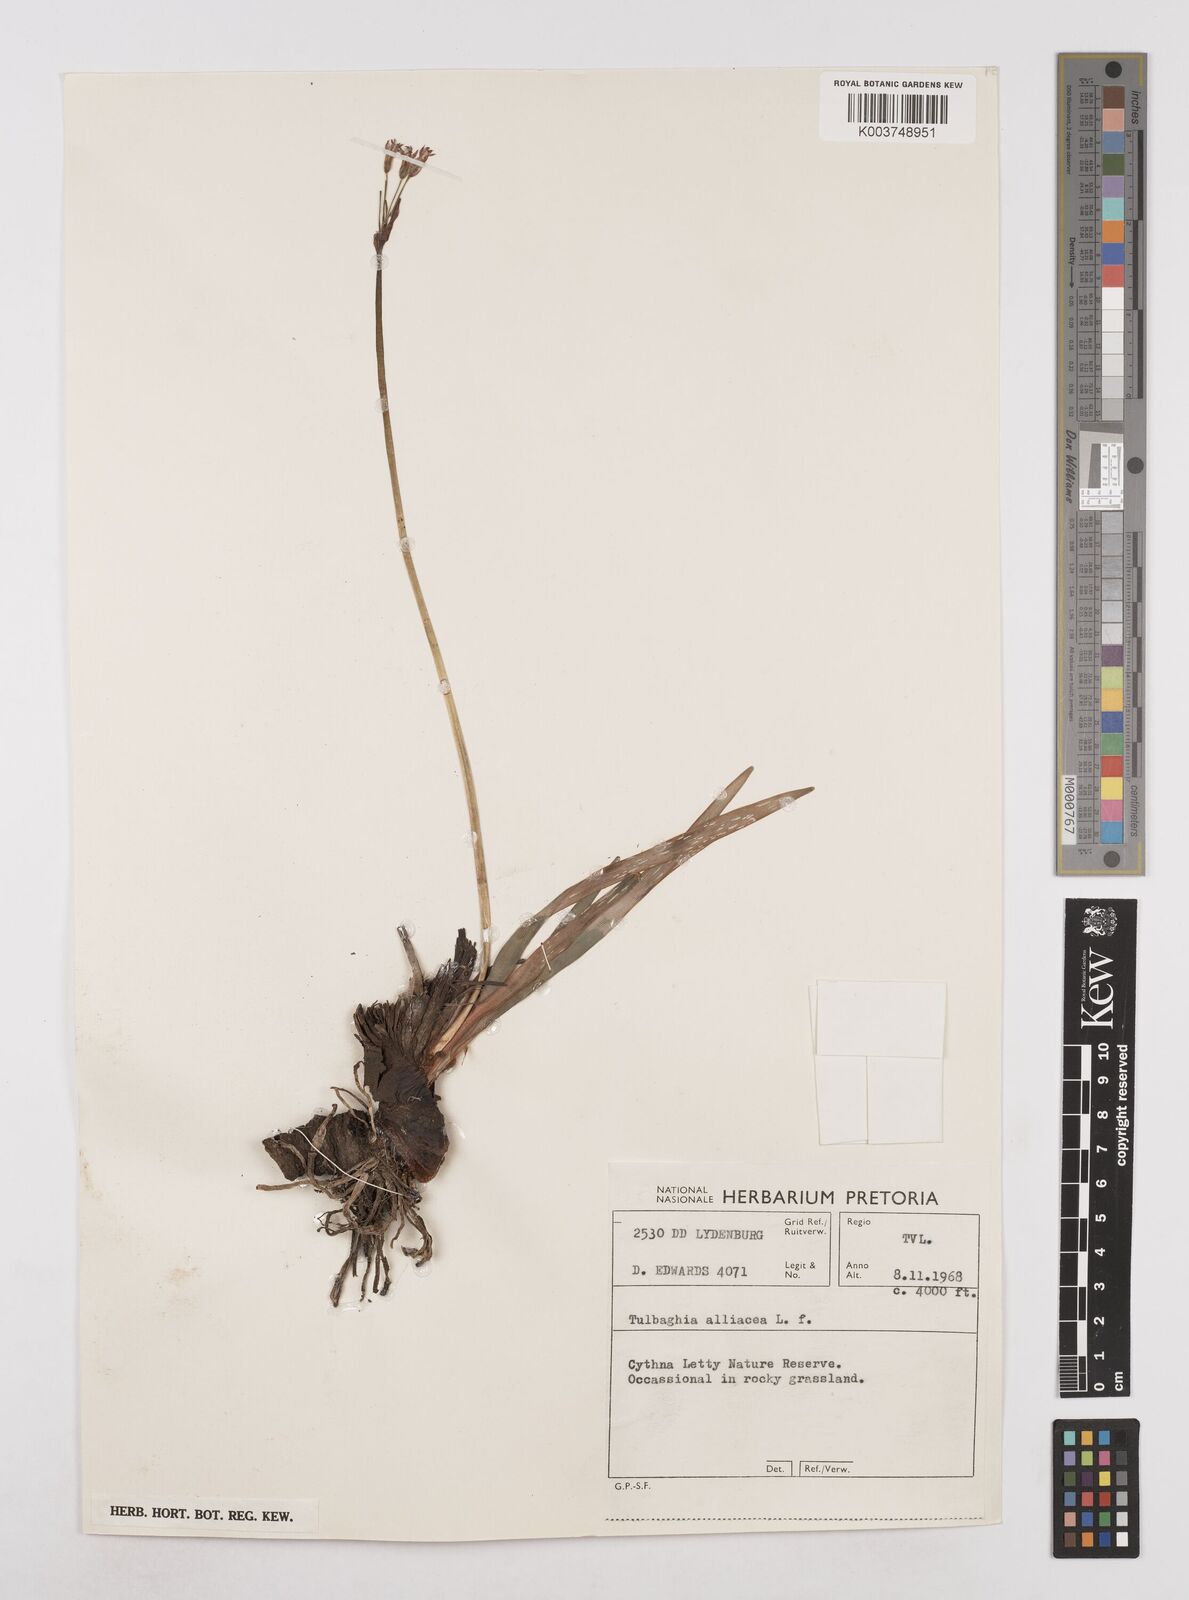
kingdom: Plantae
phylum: Tracheophyta
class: Liliopsida
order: Asparagales
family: Amaryllidaceae
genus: Tulbaghia
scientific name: Tulbaghia alliacea
